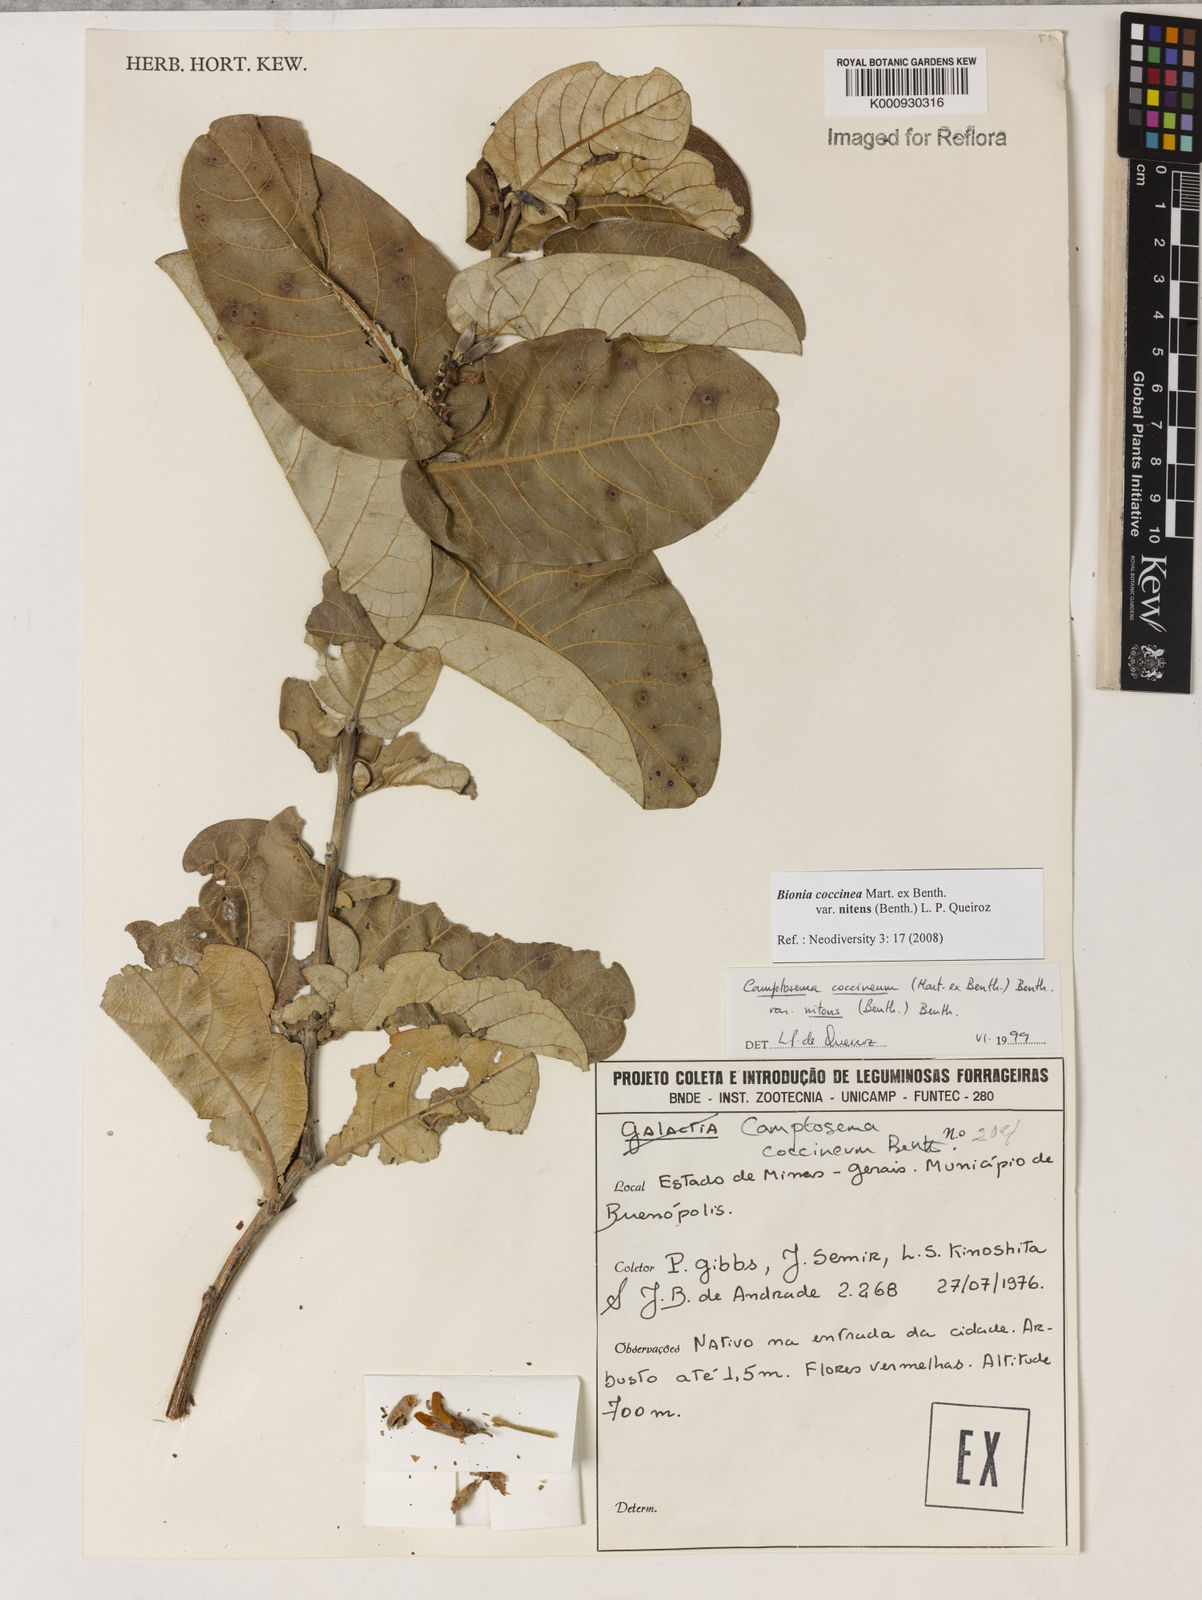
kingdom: Plantae
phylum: Tracheophyta
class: Magnoliopsida
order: Fabales
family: Fabaceae
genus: Camptosema
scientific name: Camptosema coccineum
